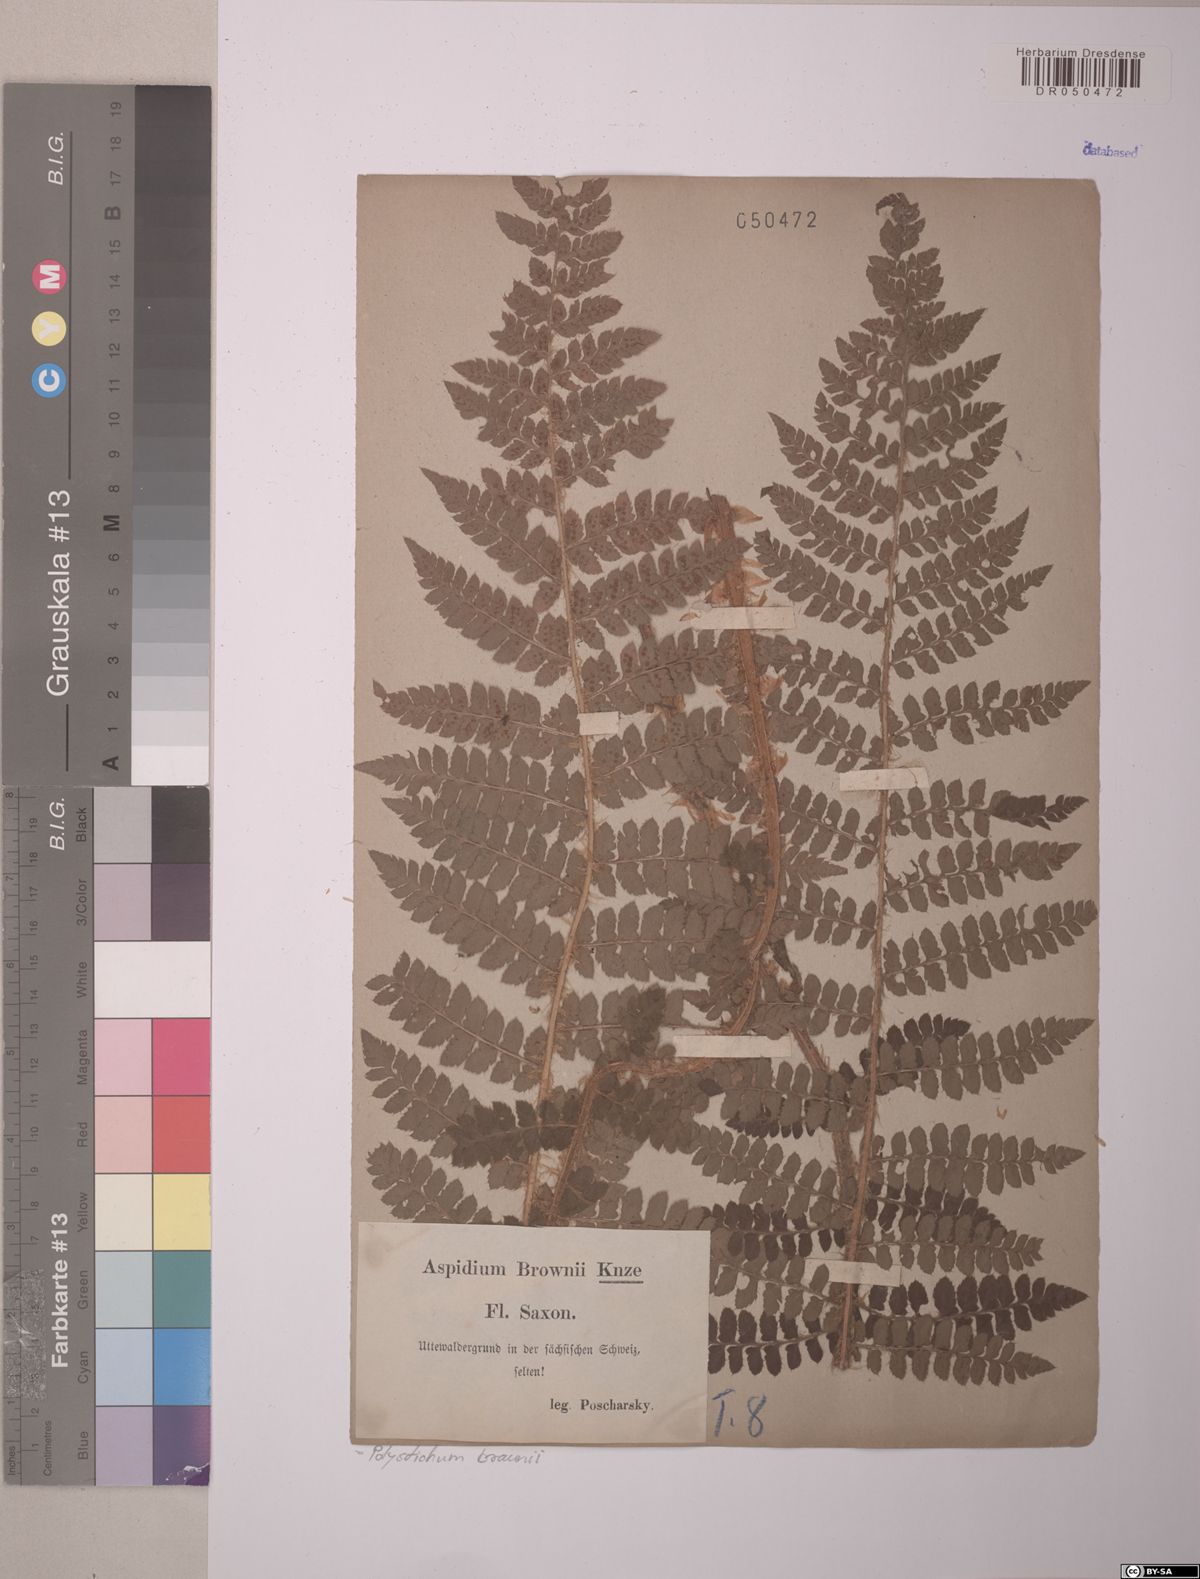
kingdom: Plantae
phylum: Tracheophyta
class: Polypodiopsida
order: Polypodiales
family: Dryopteridaceae
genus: Polystichum
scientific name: Polystichum braunii
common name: Braun's holly fern
